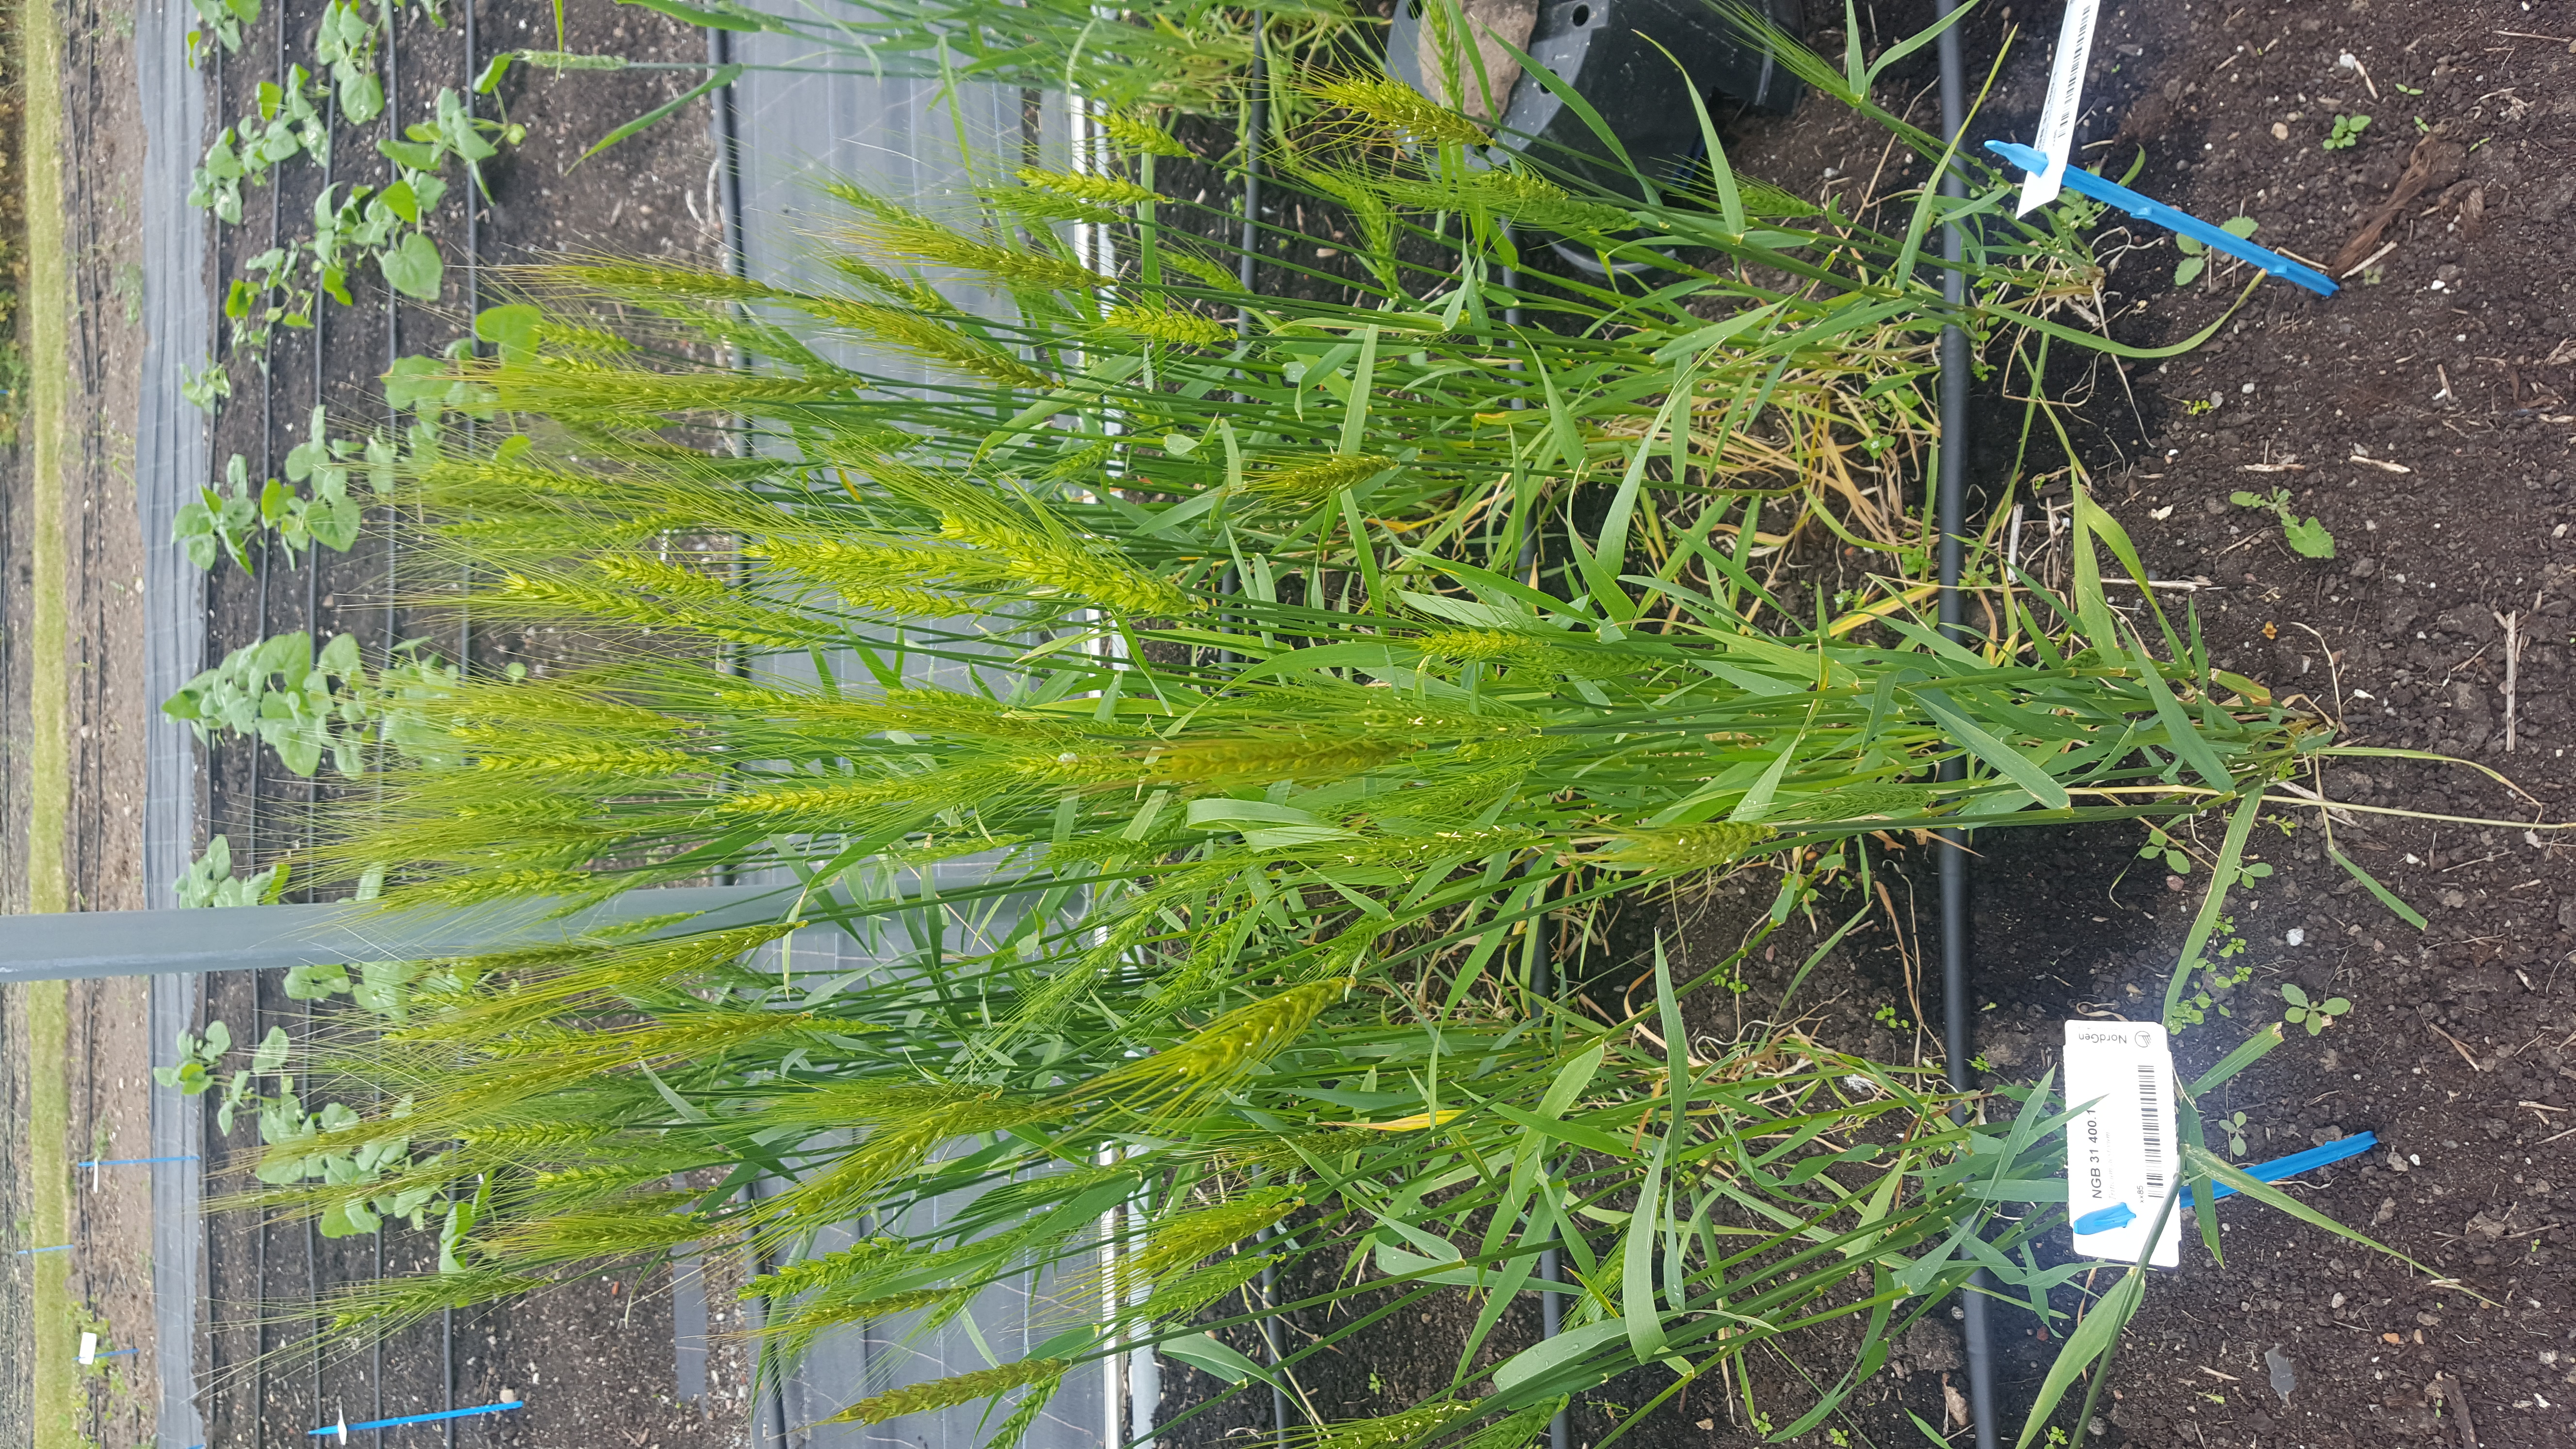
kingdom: Plantae
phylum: Tracheophyta
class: Liliopsida
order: Poales
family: Poaceae
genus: Triticum
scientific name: Triticum aestivum
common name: Common wheat
